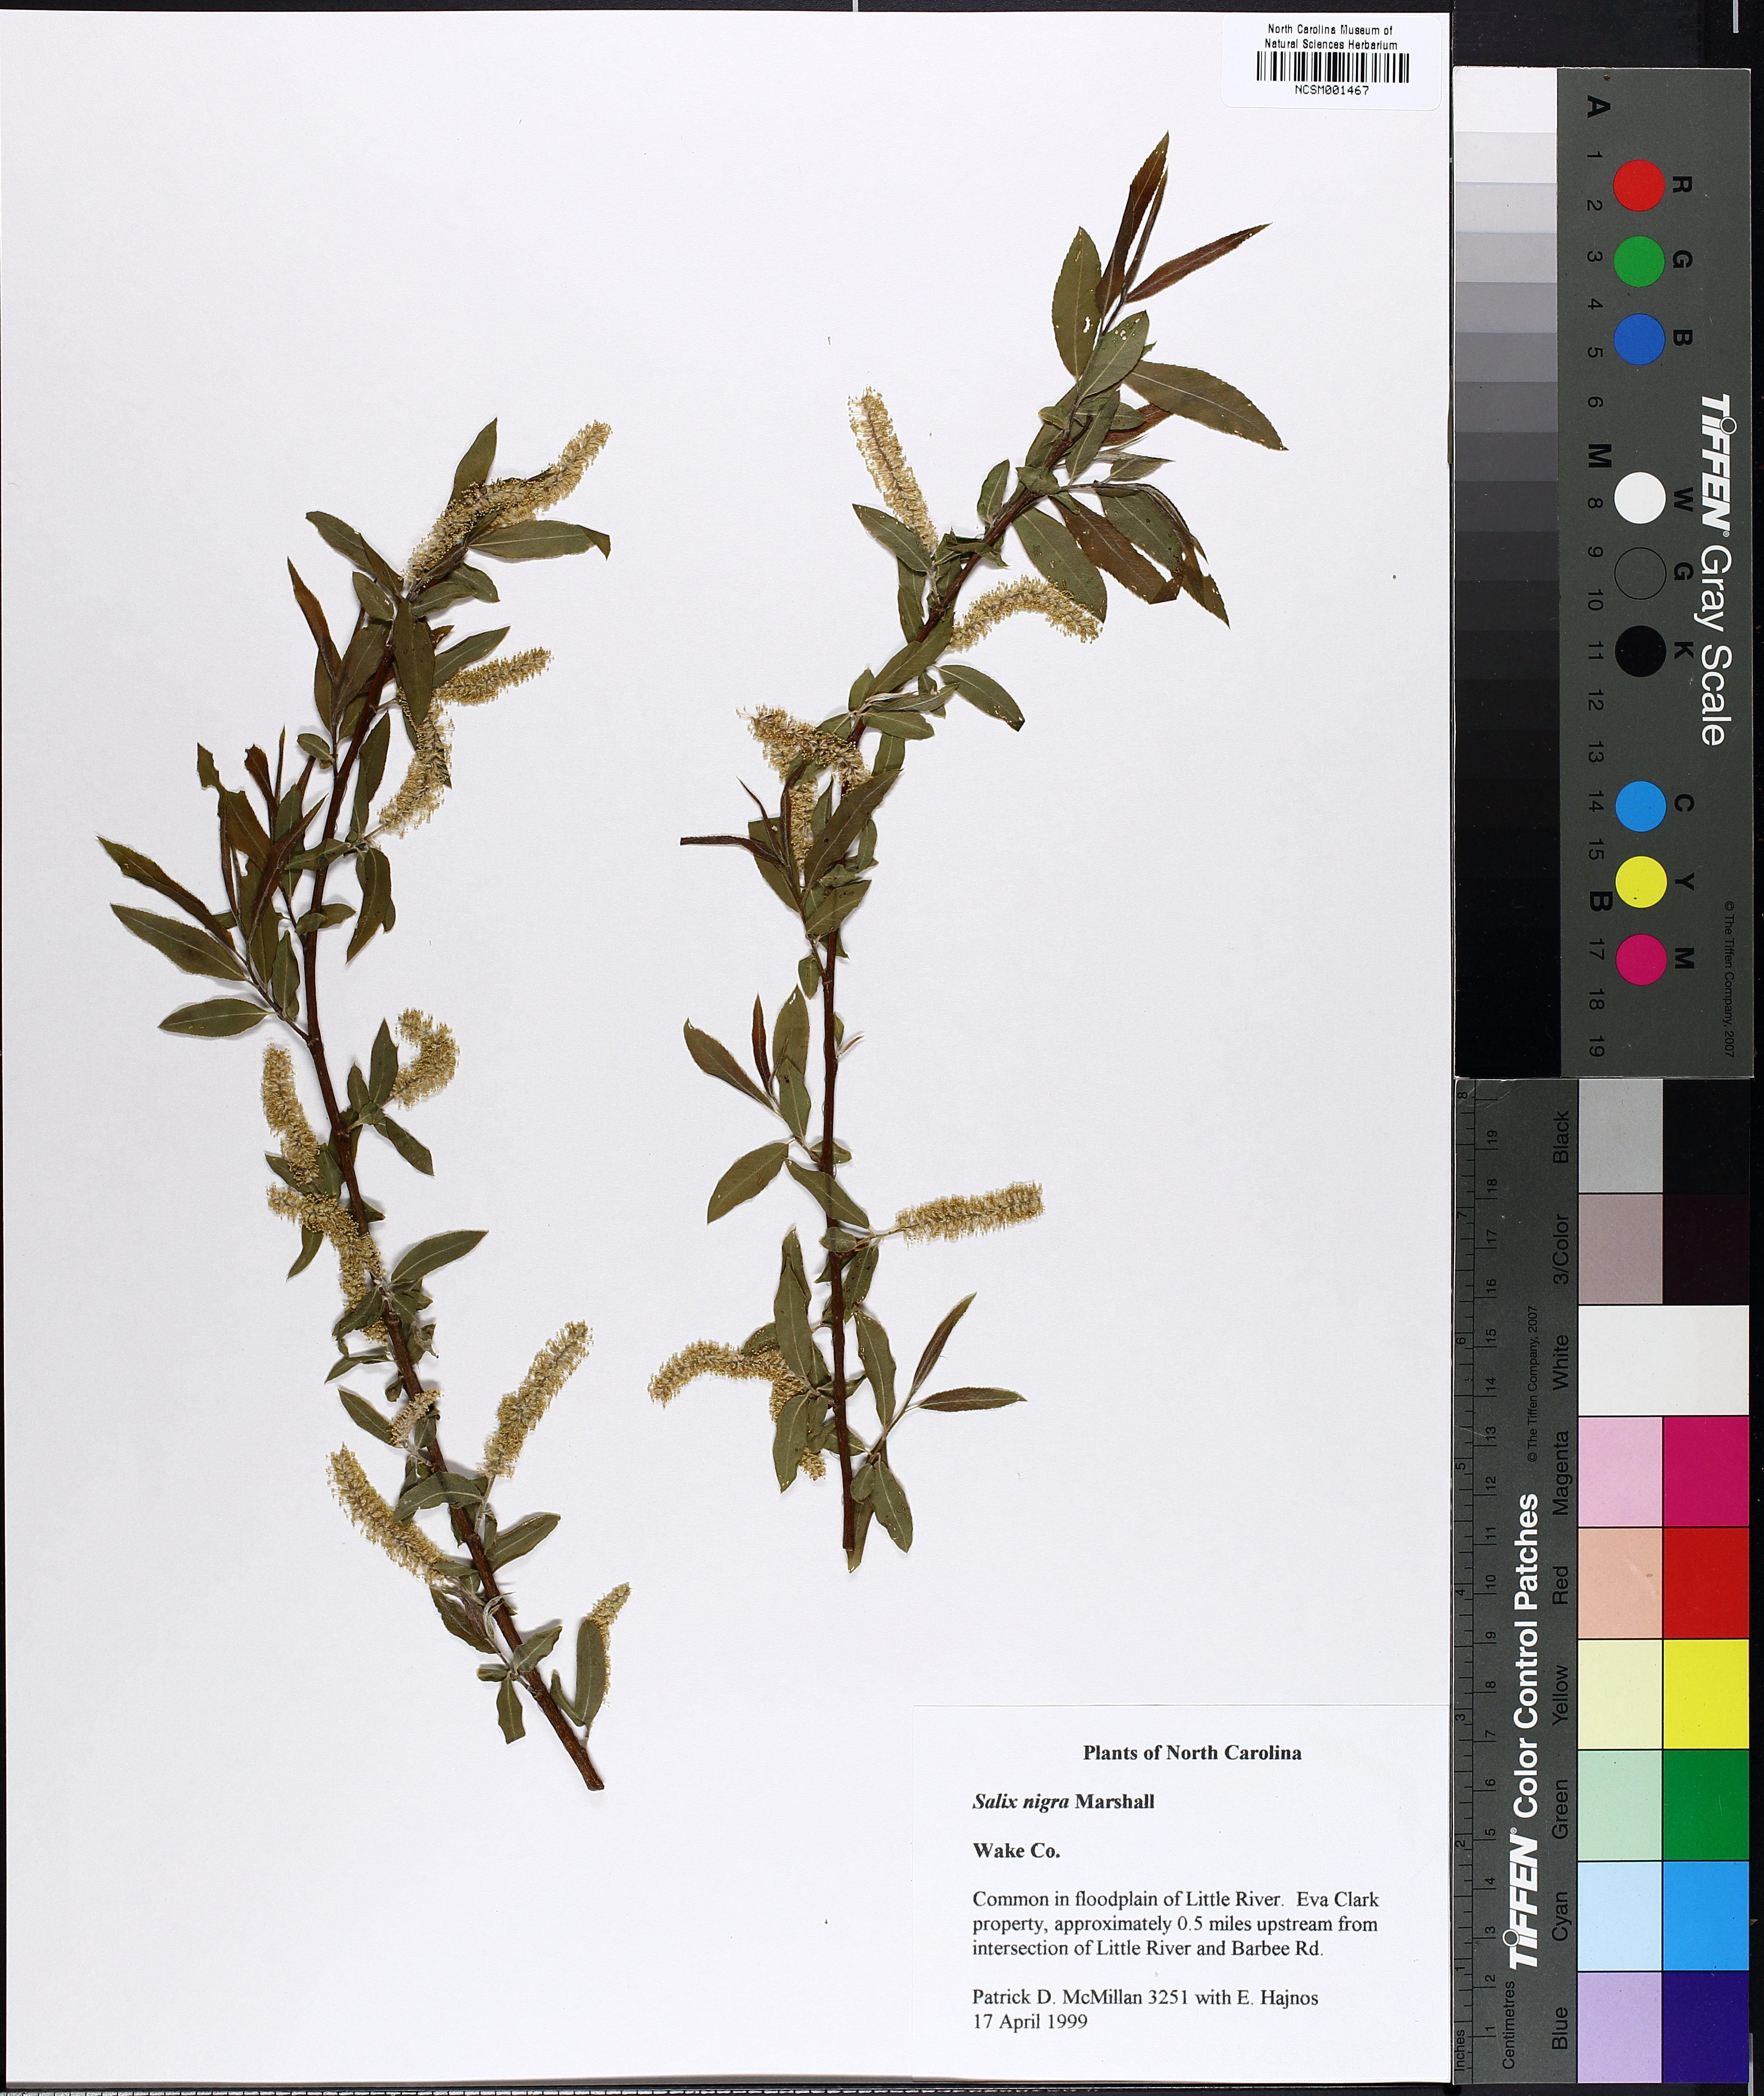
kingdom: Plantae
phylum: Tracheophyta
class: Magnoliopsida
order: Malpighiales
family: Salicaceae
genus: Salix
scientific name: Salix nigra
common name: Black willow
